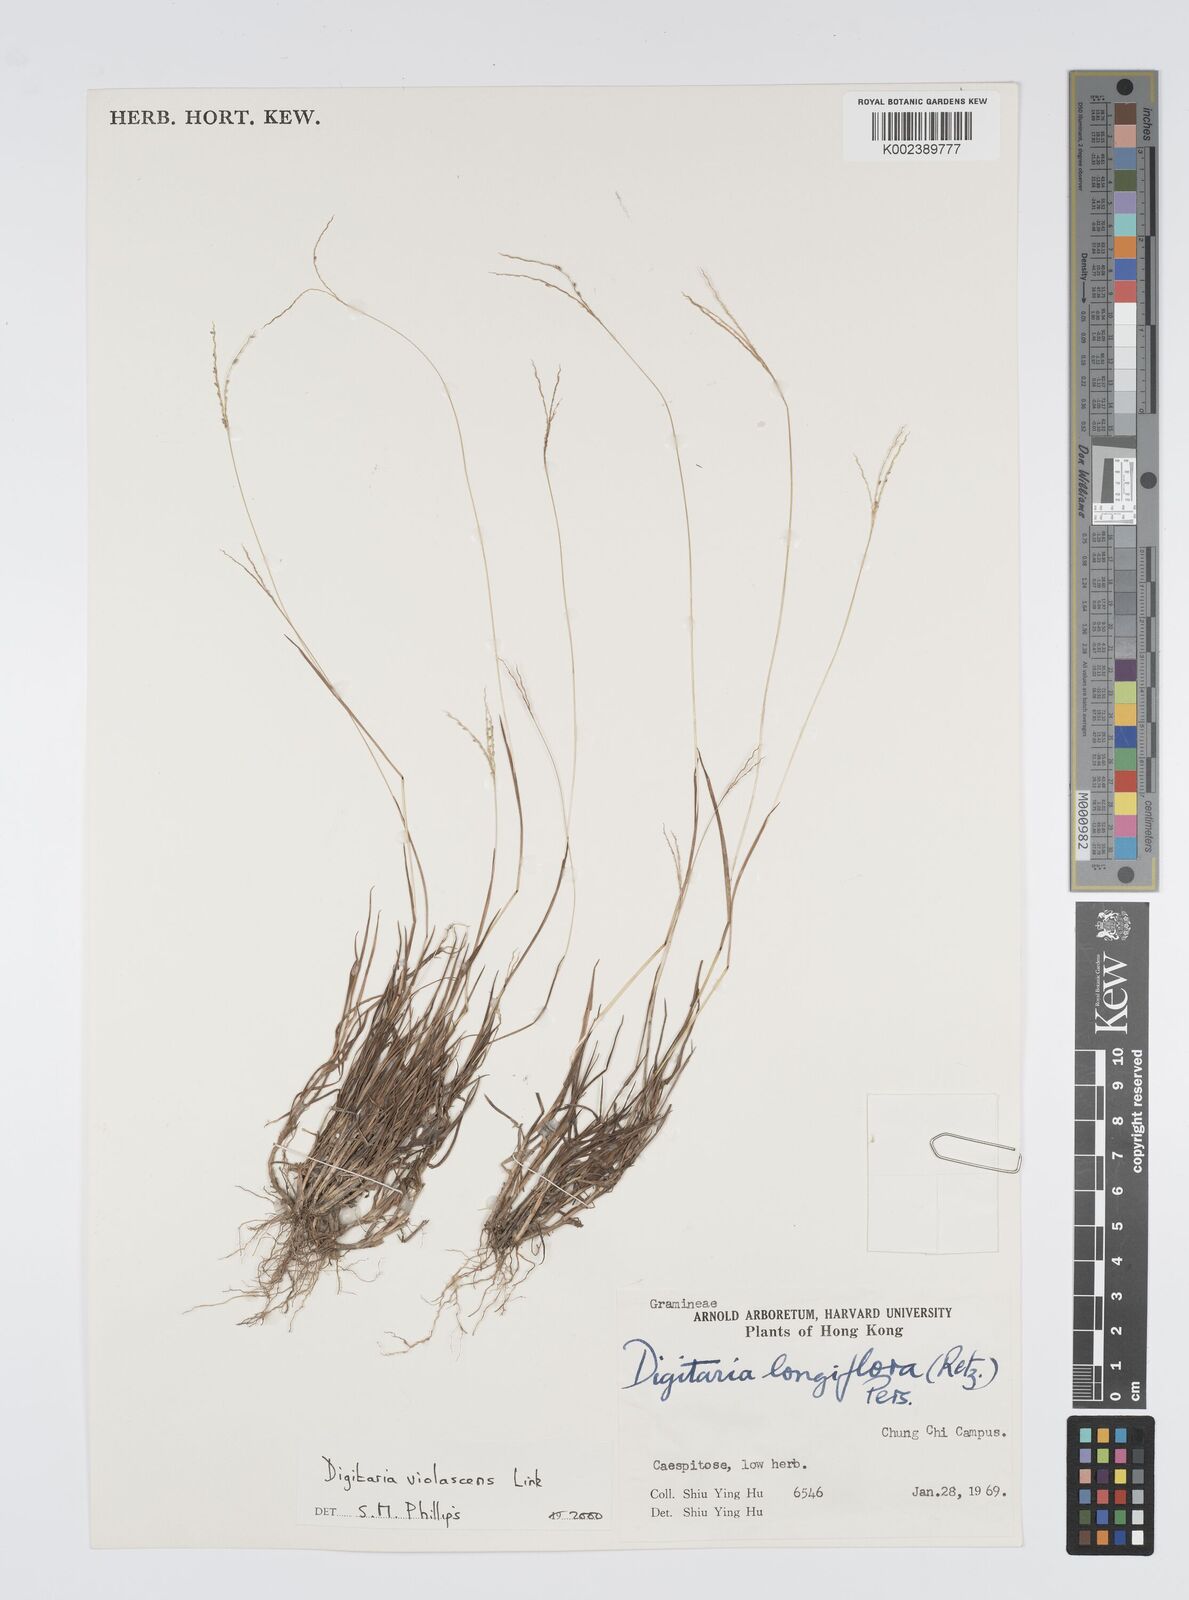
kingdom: Plantae
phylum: Tracheophyta
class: Liliopsida
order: Poales
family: Poaceae
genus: Digitaria
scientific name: Digitaria violascens
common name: Violet crabgrass
